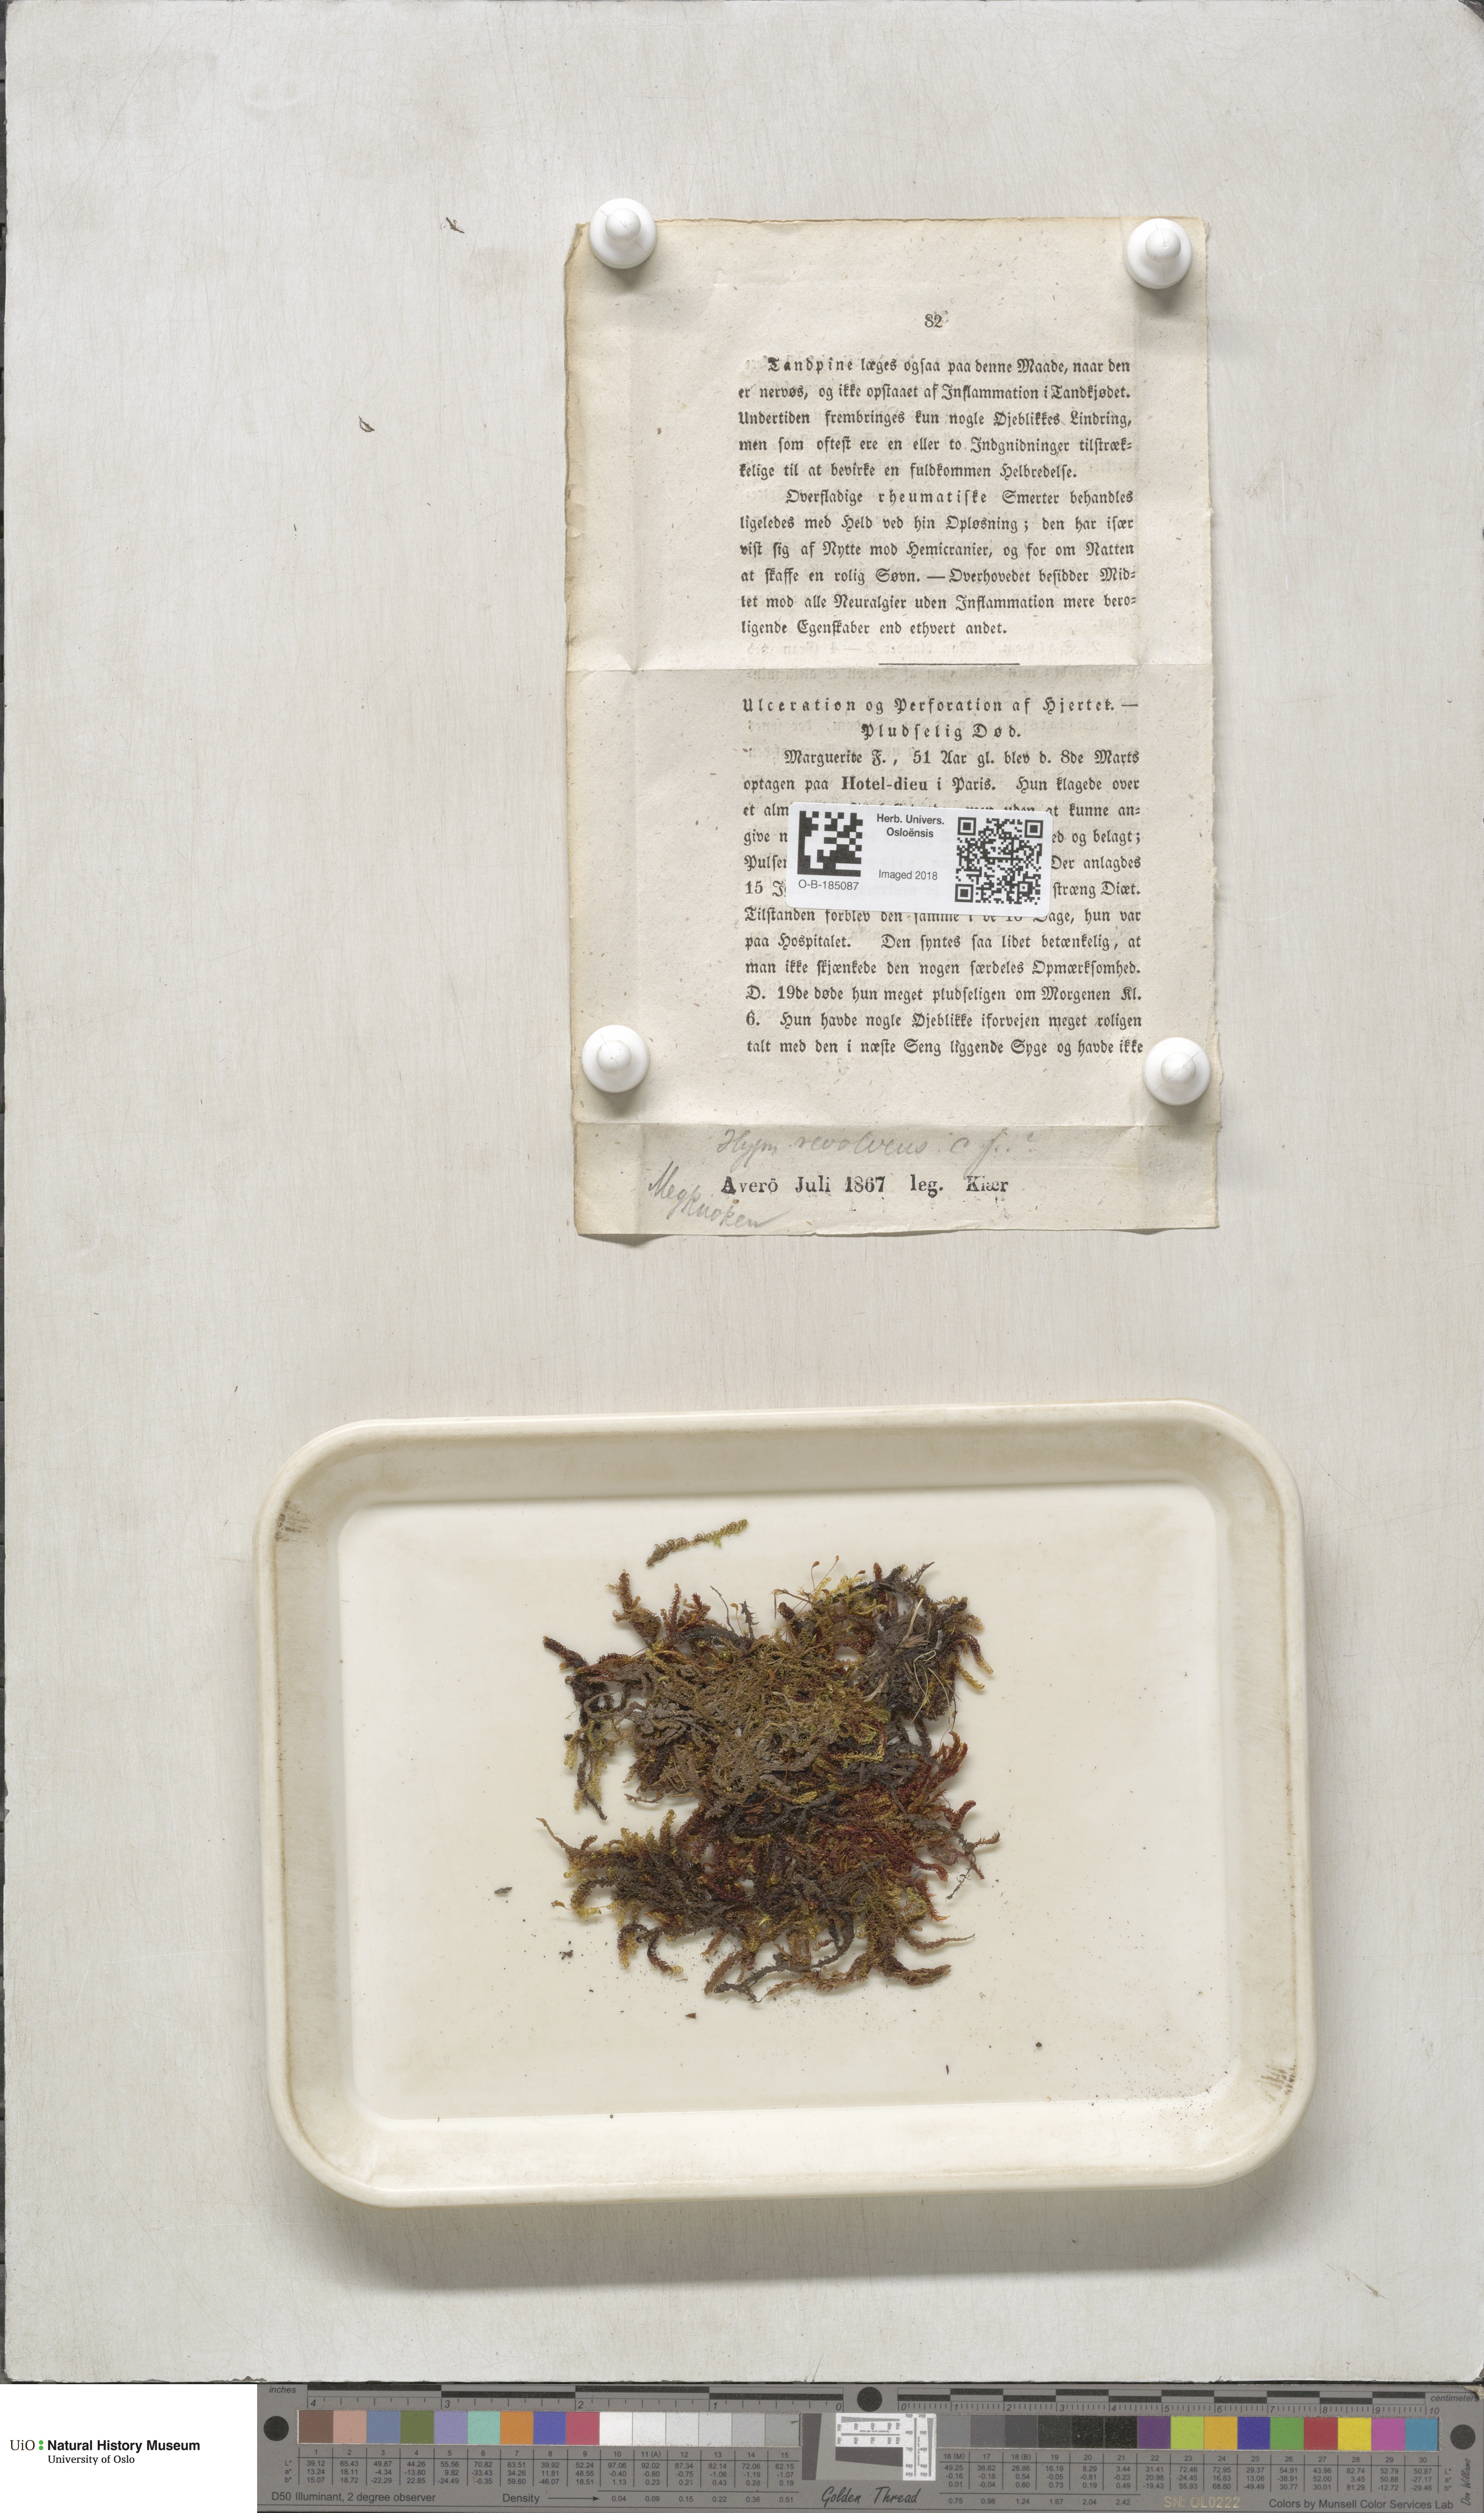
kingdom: Plantae
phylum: Bryophyta
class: Bryopsida
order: Hypnales
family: Scorpidiaceae
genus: Scorpidium
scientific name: Scorpidium revolvens
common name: Rusty hook moss
